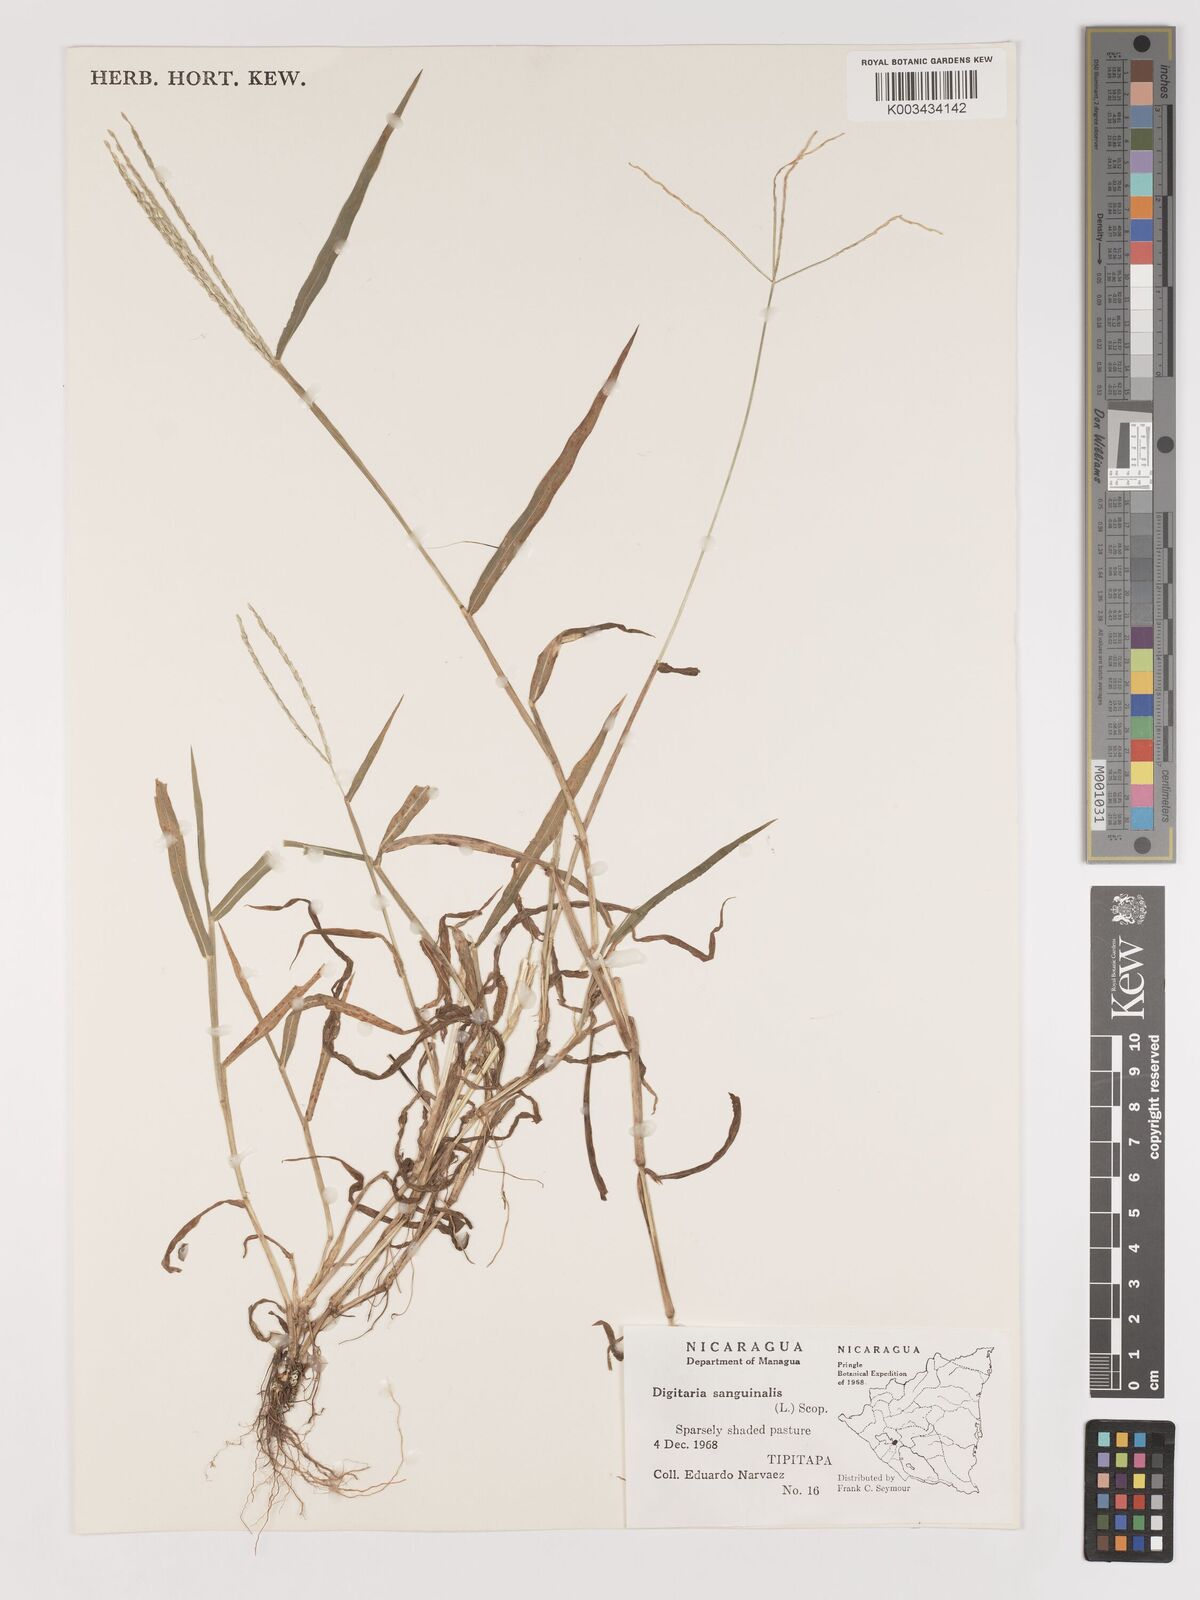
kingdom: Plantae
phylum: Tracheophyta
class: Liliopsida
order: Poales
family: Poaceae
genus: Digitaria
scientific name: Digitaria ciliaris
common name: Tropical finger-grass
